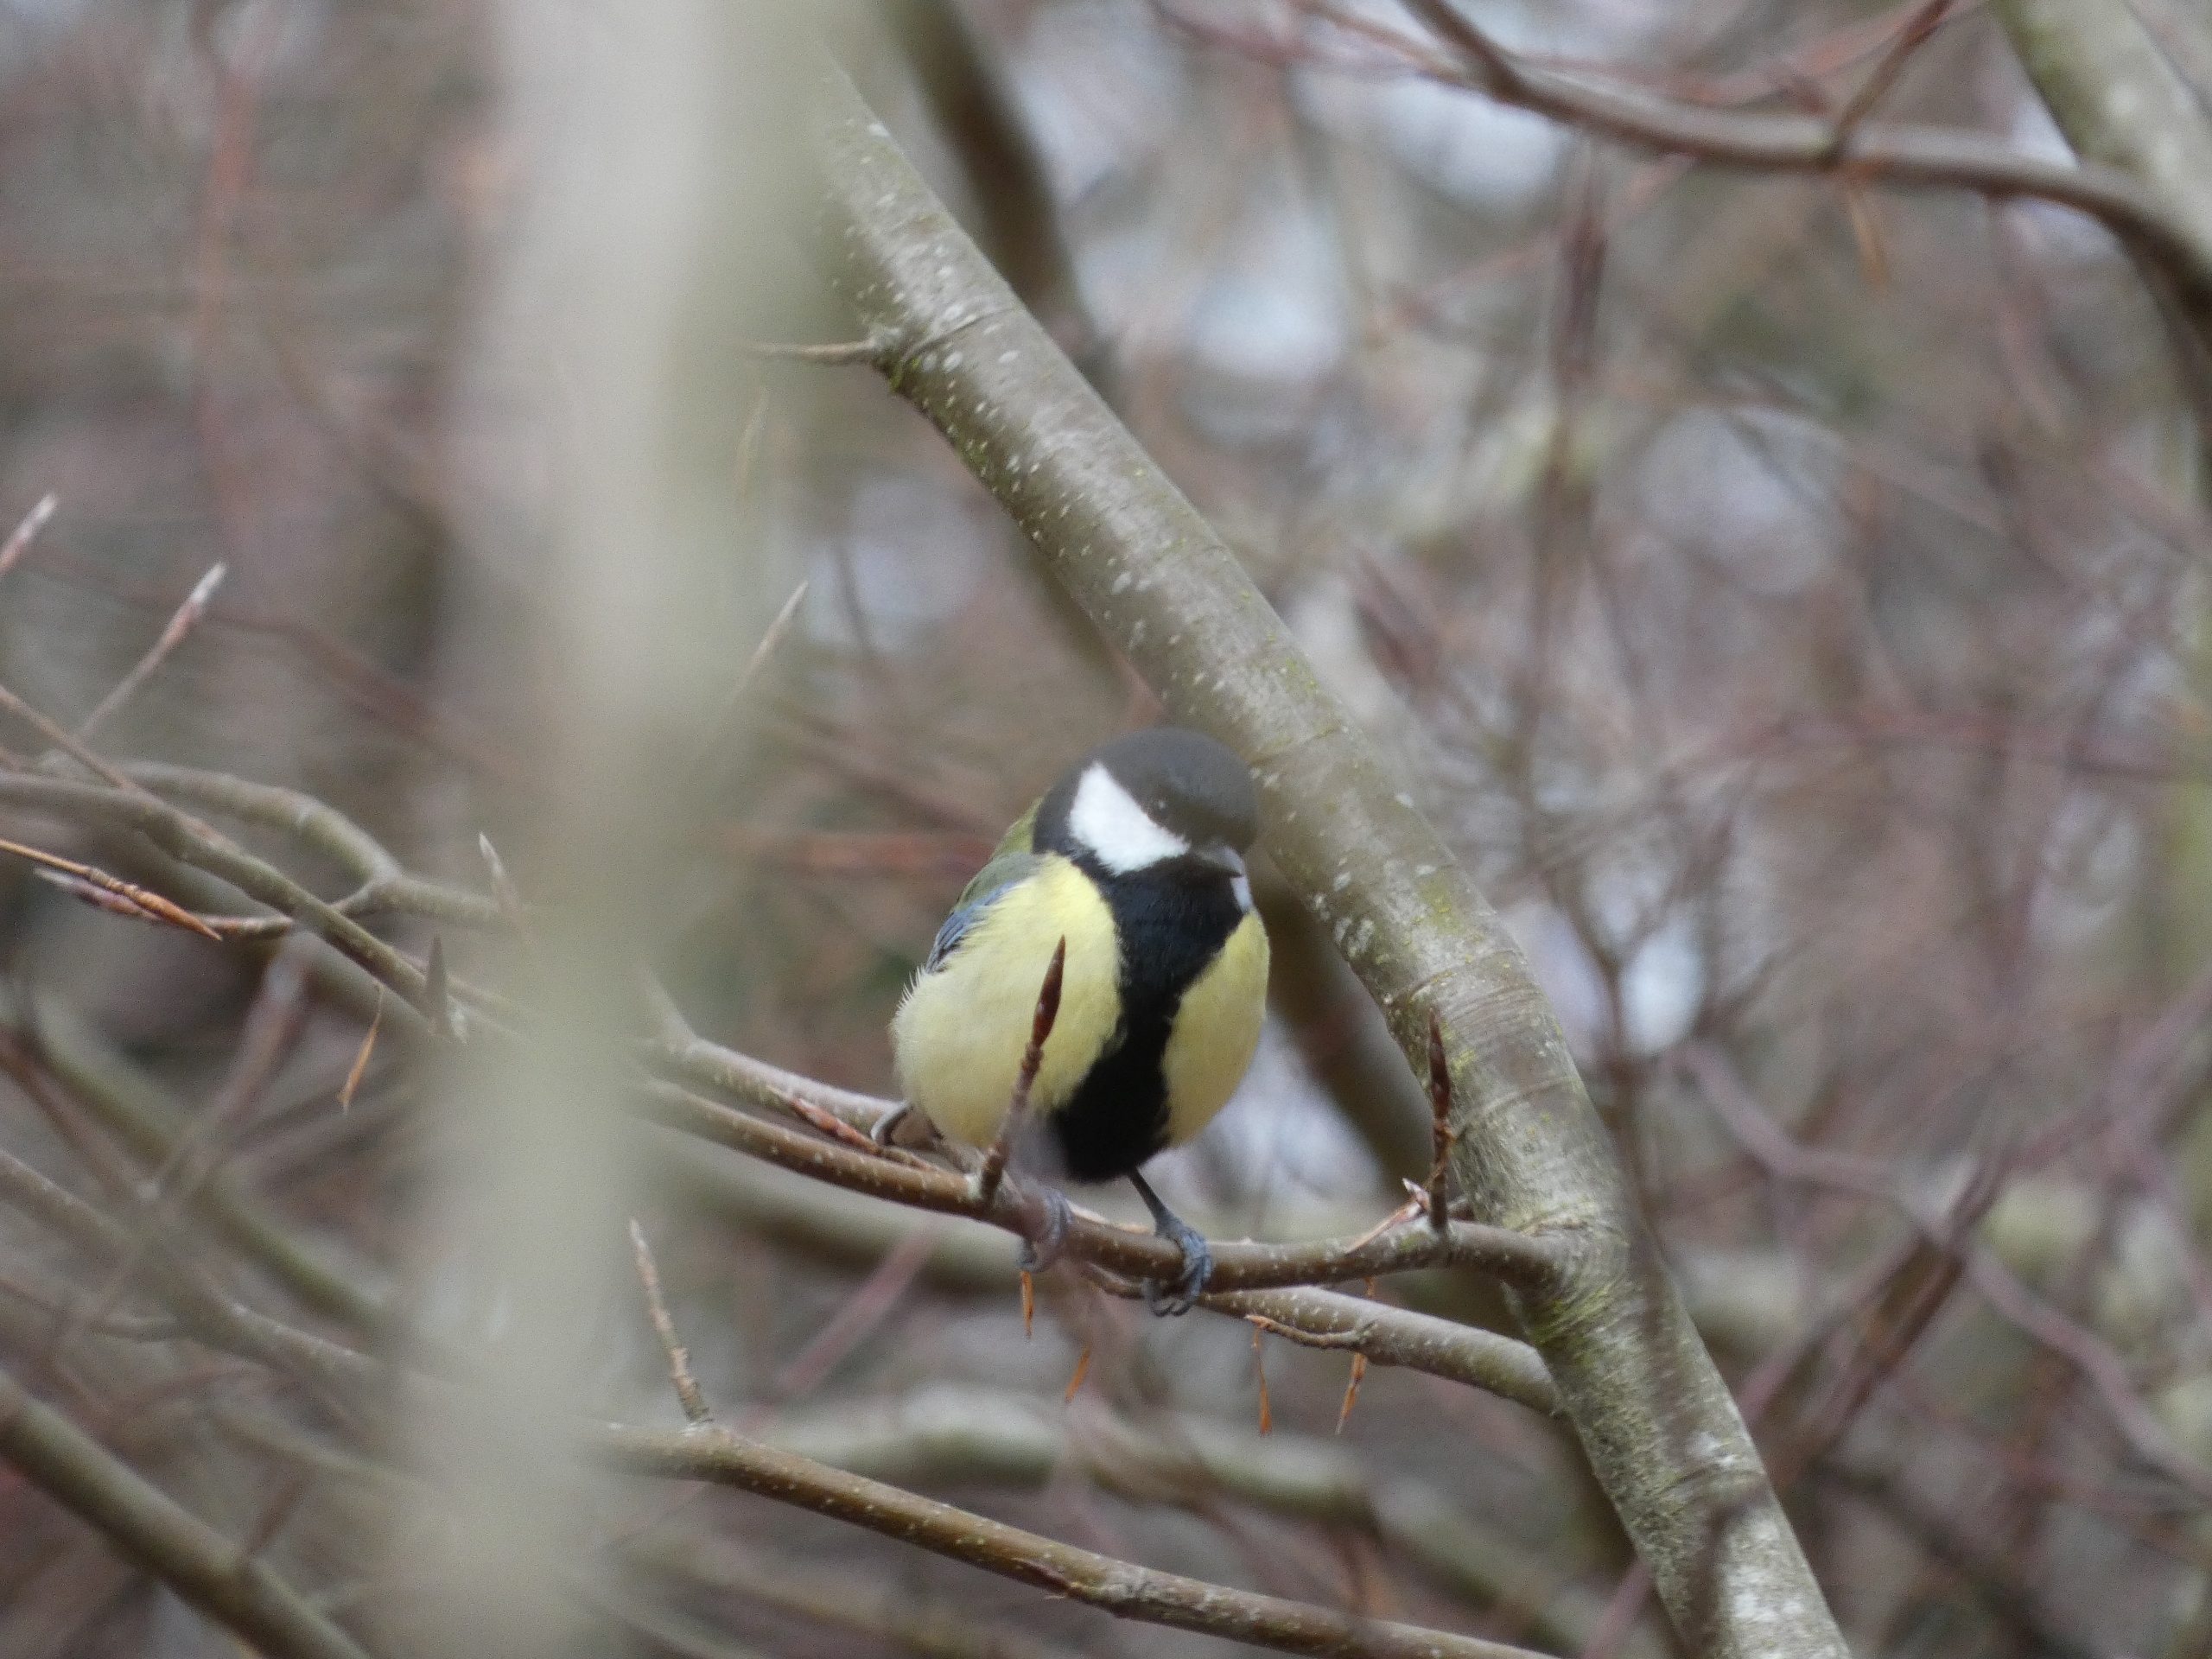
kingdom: Animalia
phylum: Chordata
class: Aves
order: Passeriformes
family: Paridae
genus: Parus
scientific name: Parus major
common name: Musvit
